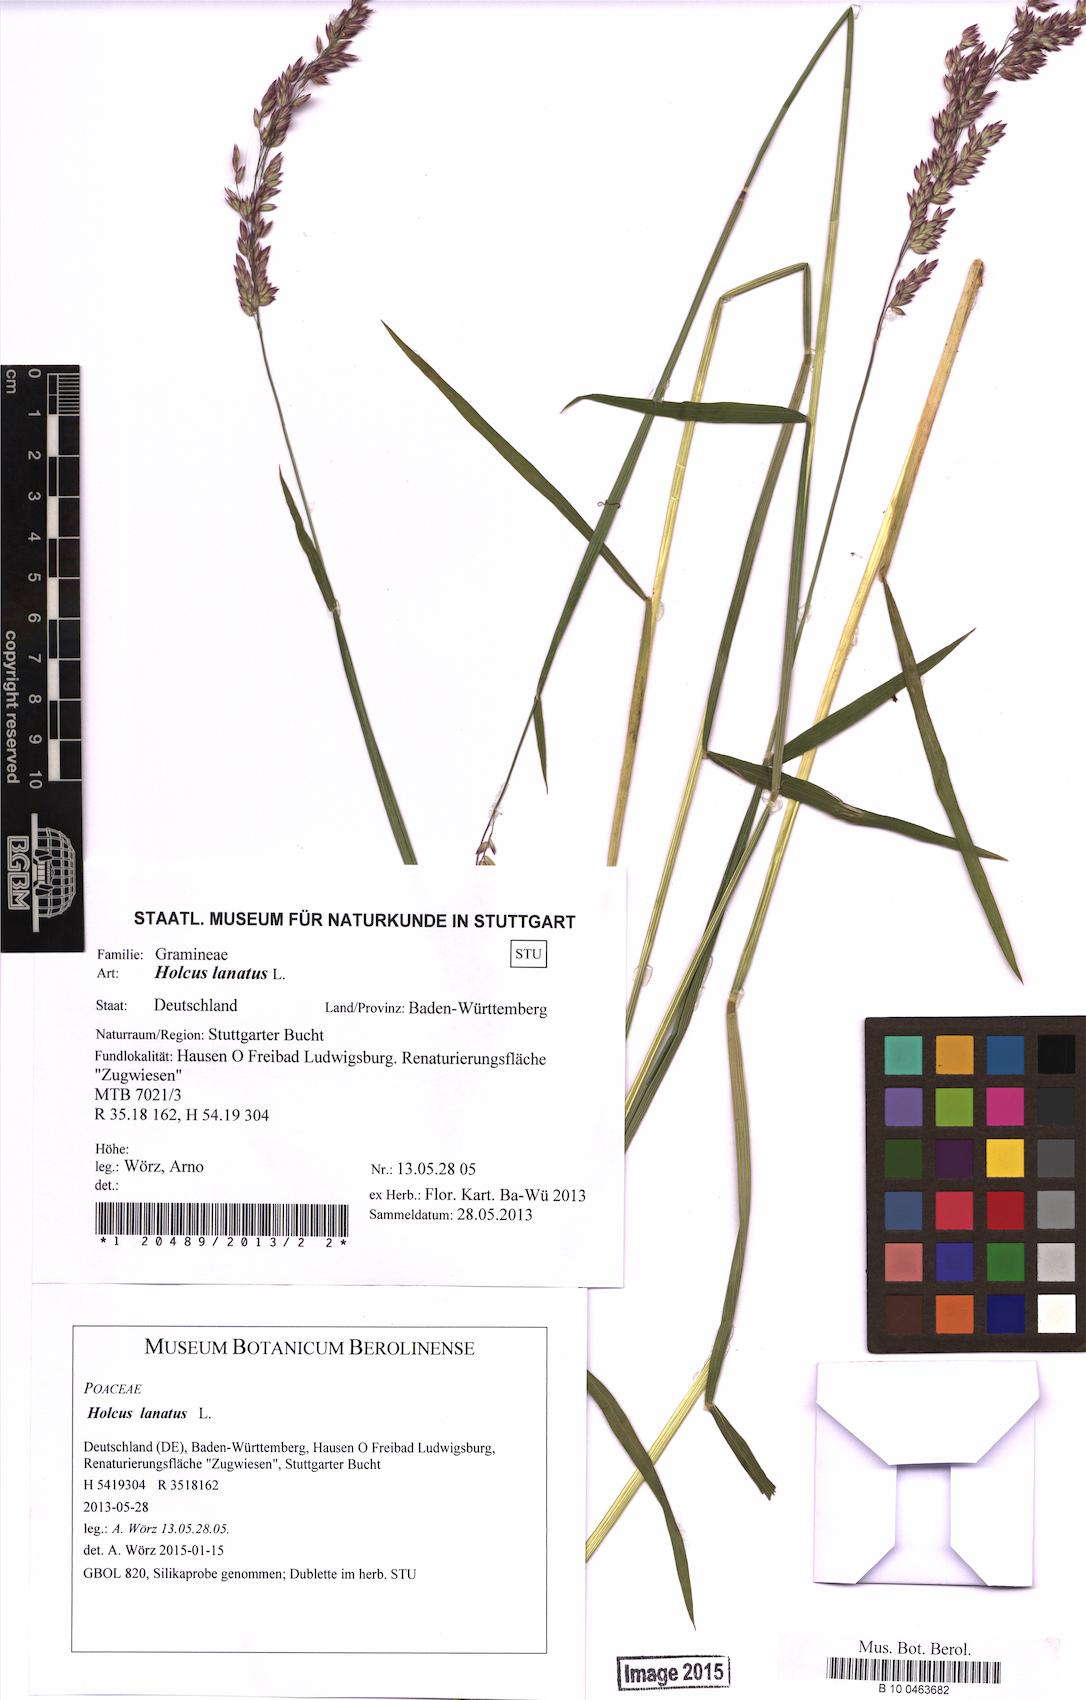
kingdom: Plantae
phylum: Tracheophyta
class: Liliopsida
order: Poales
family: Poaceae
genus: Holcus
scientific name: Holcus lanatus
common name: Yorkshire-fog
